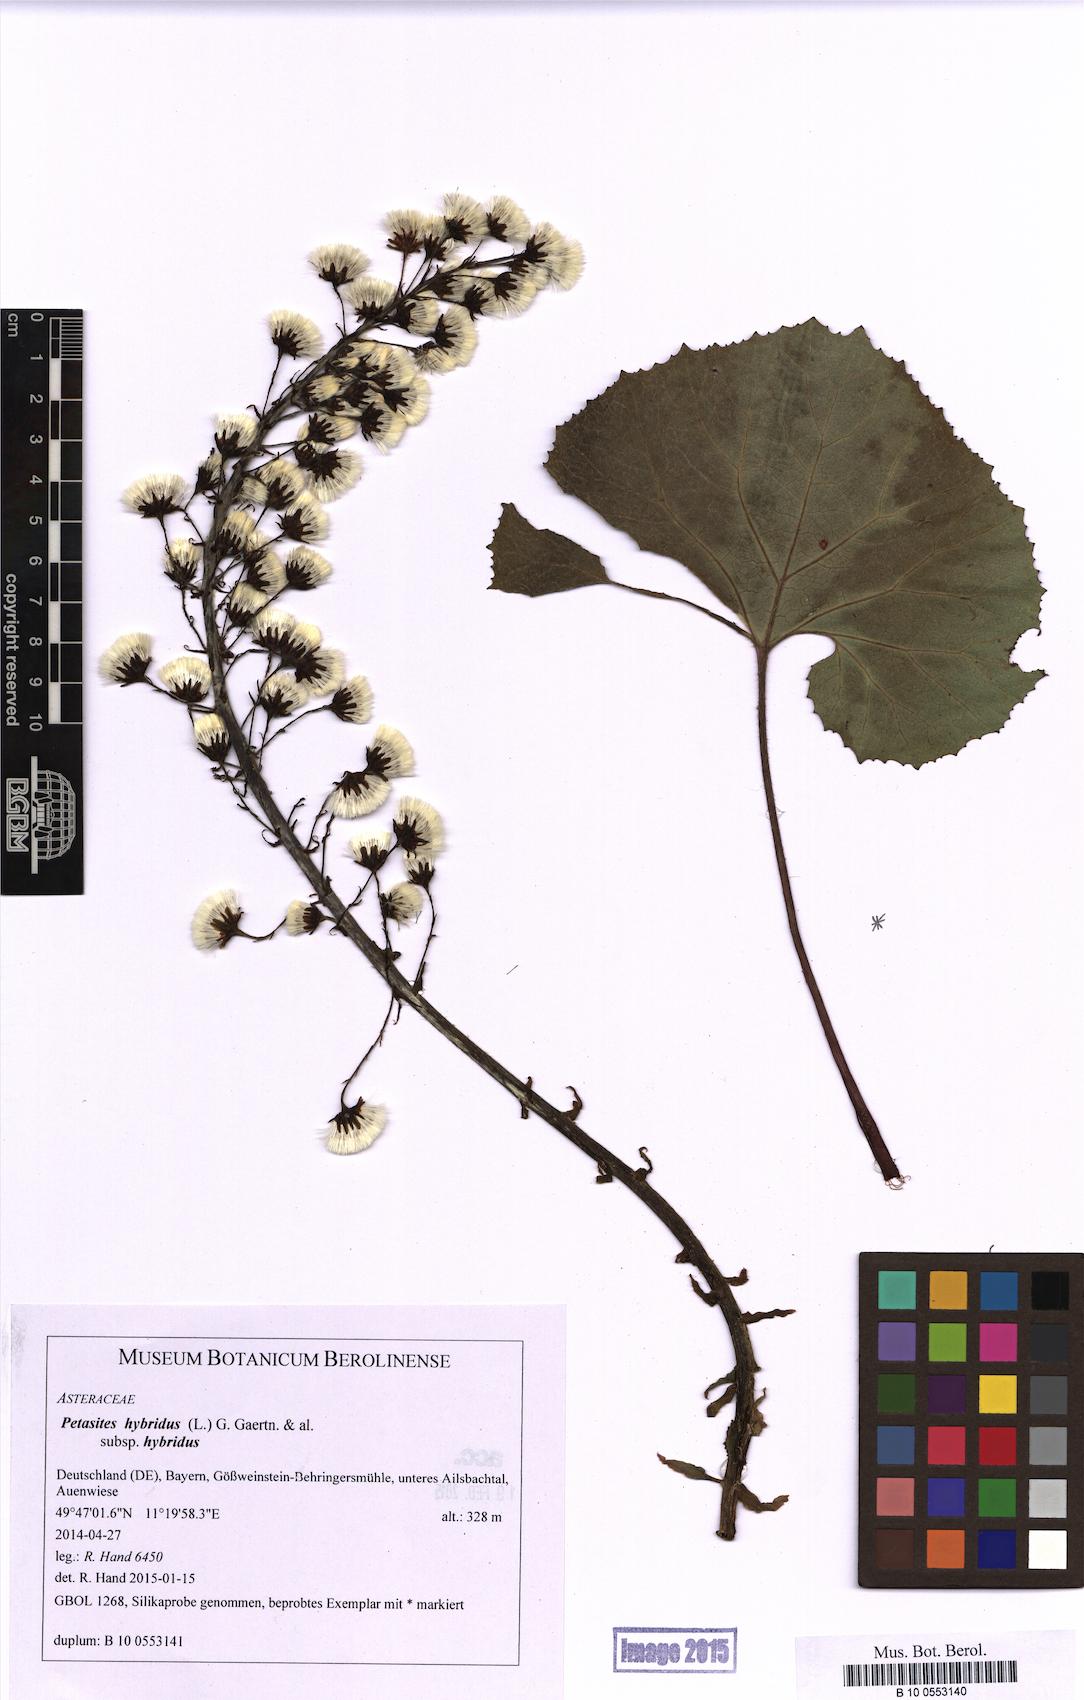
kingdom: Plantae
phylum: Tracheophyta
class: Magnoliopsida
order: Asterales
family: Asteraceae
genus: Petasites
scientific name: Petasites hybridus
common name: Butterbur
